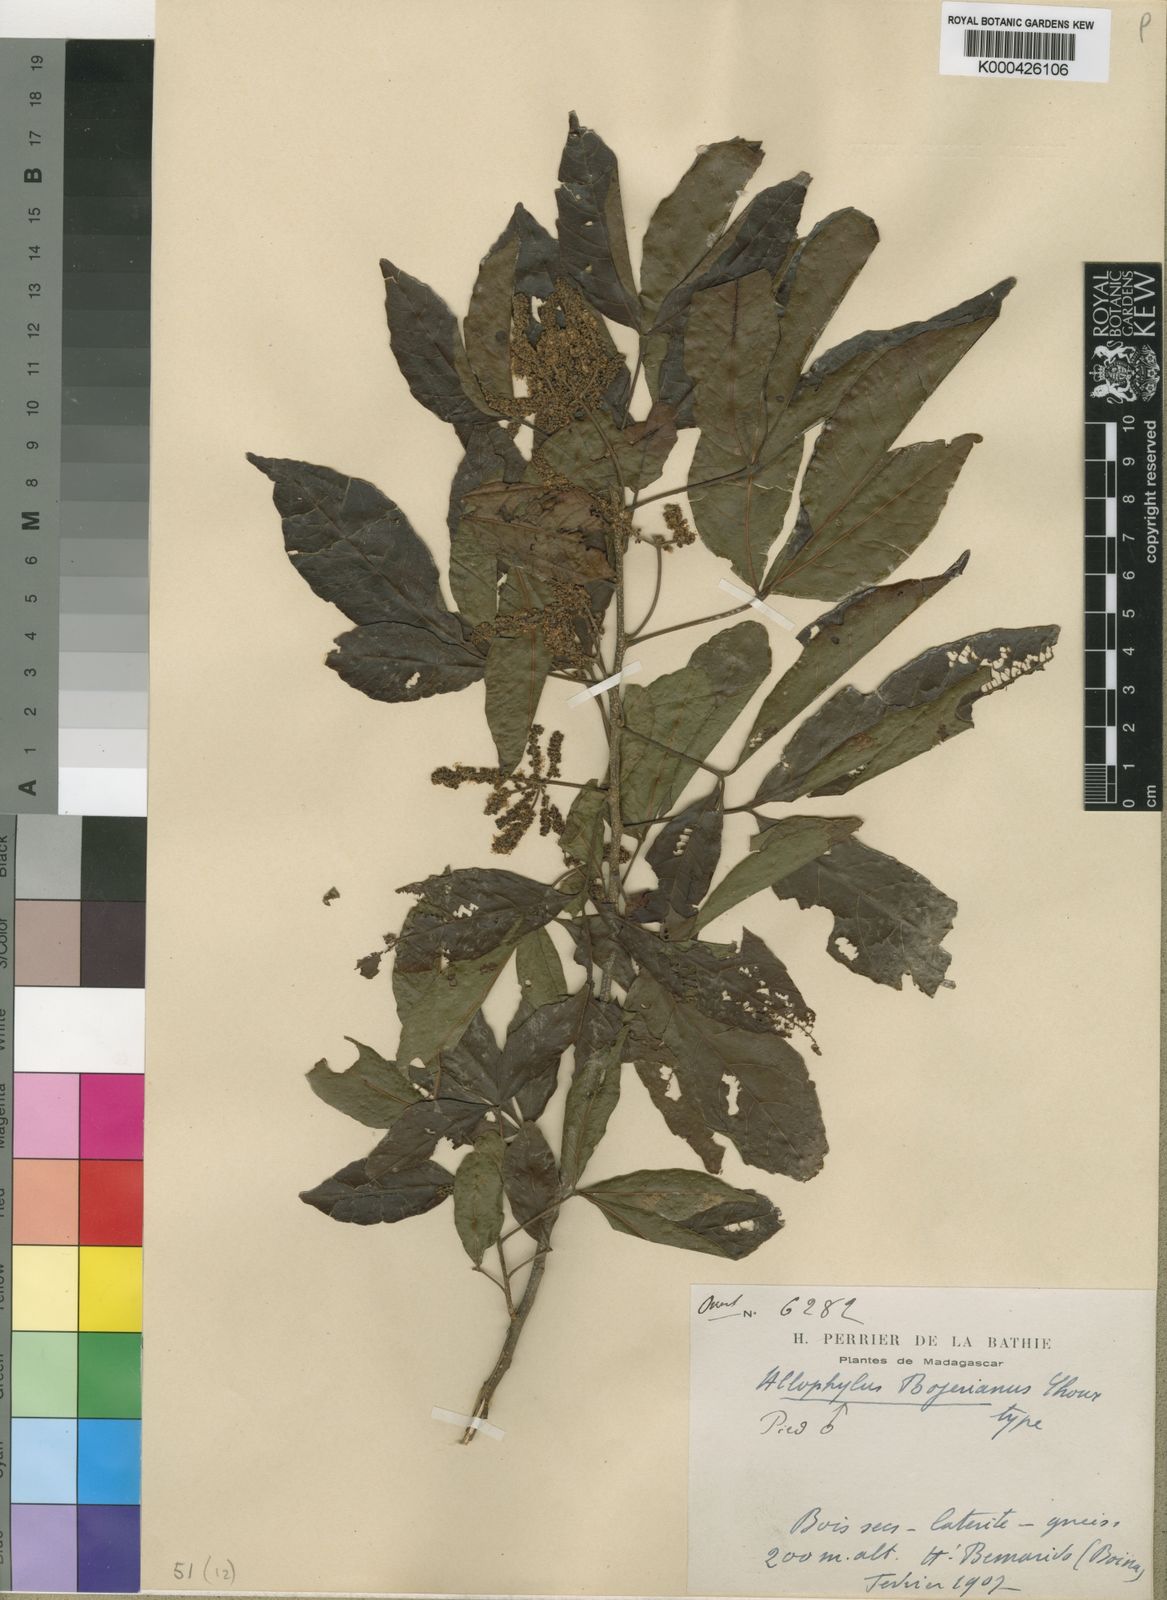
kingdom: Plantae
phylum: Tracheophyta
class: Magnoliopsida
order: Sapindales
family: Sapindaceae
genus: Allophylus
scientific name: Allophylus
